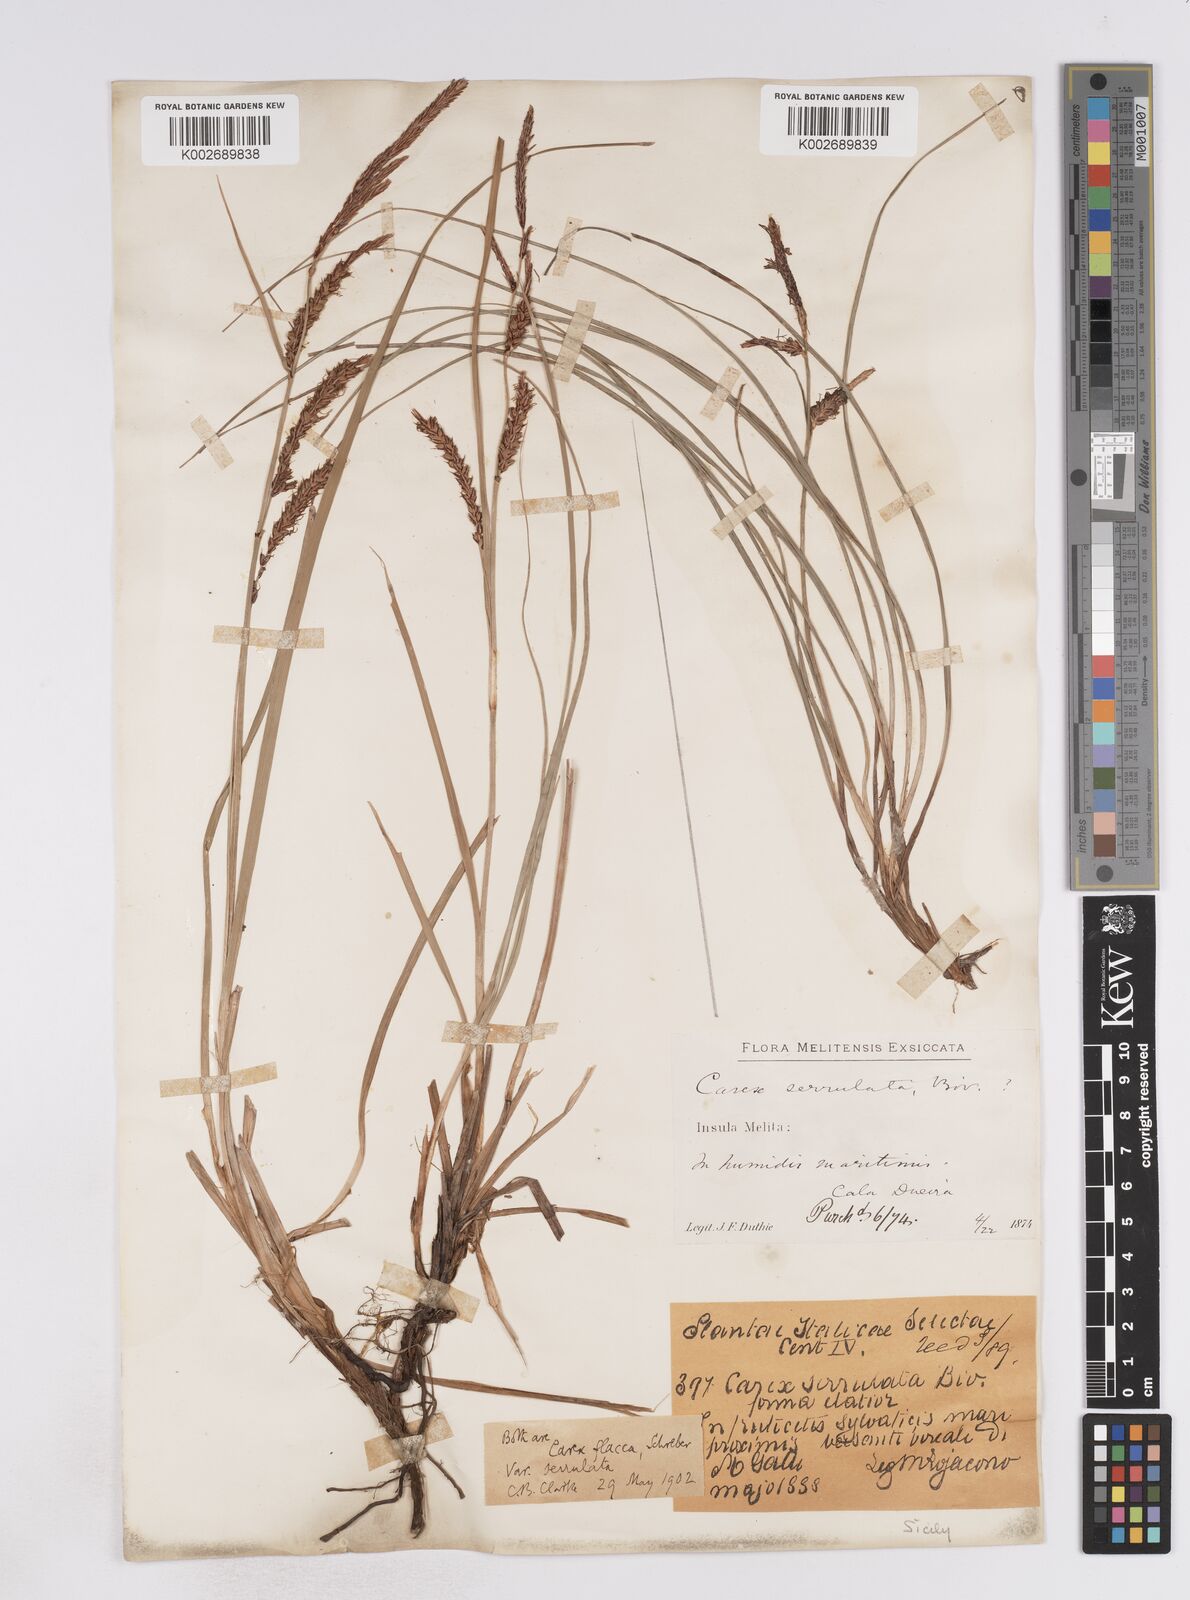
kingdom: Plantae
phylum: Tracheophyta
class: Liliopsida
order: Poales
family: Cyperaceae
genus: Carex
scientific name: Carex flacca
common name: Glaucous sedge
